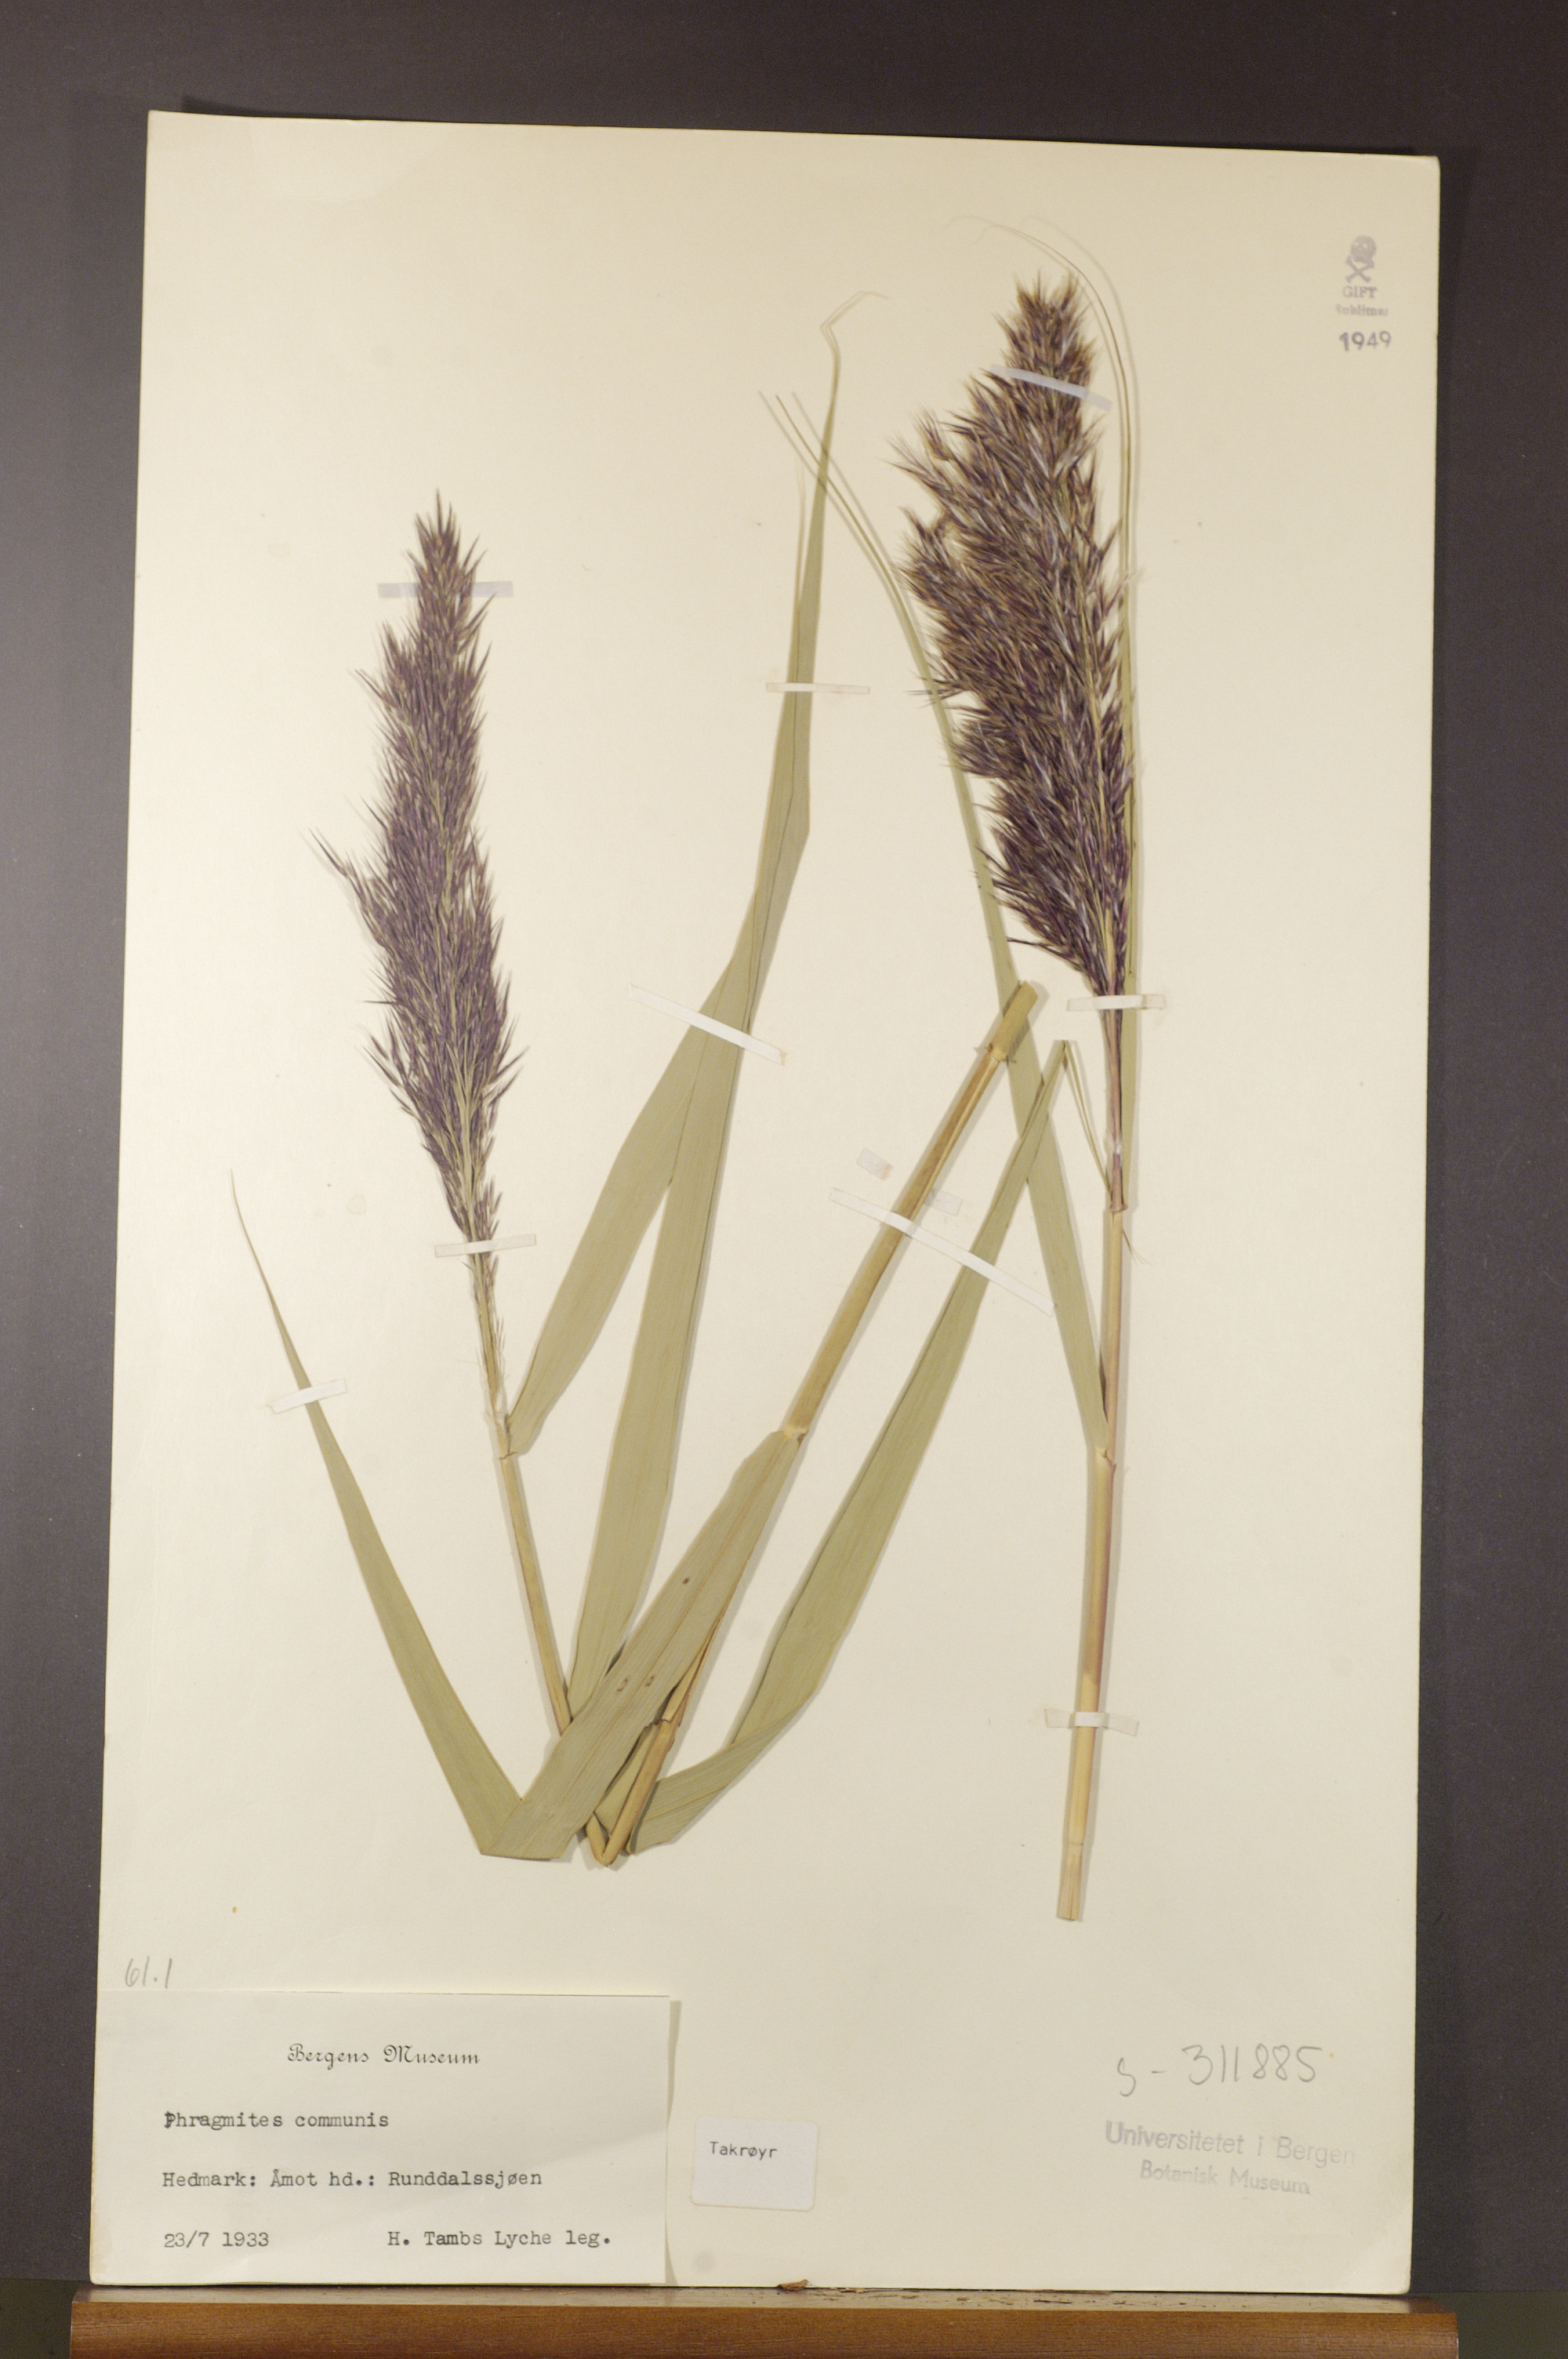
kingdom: Plantae
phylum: Tracheophyta
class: Liliopsida
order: Poales
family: Poaceae
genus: Phragmites
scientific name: Phragmites australis
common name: Common reed
